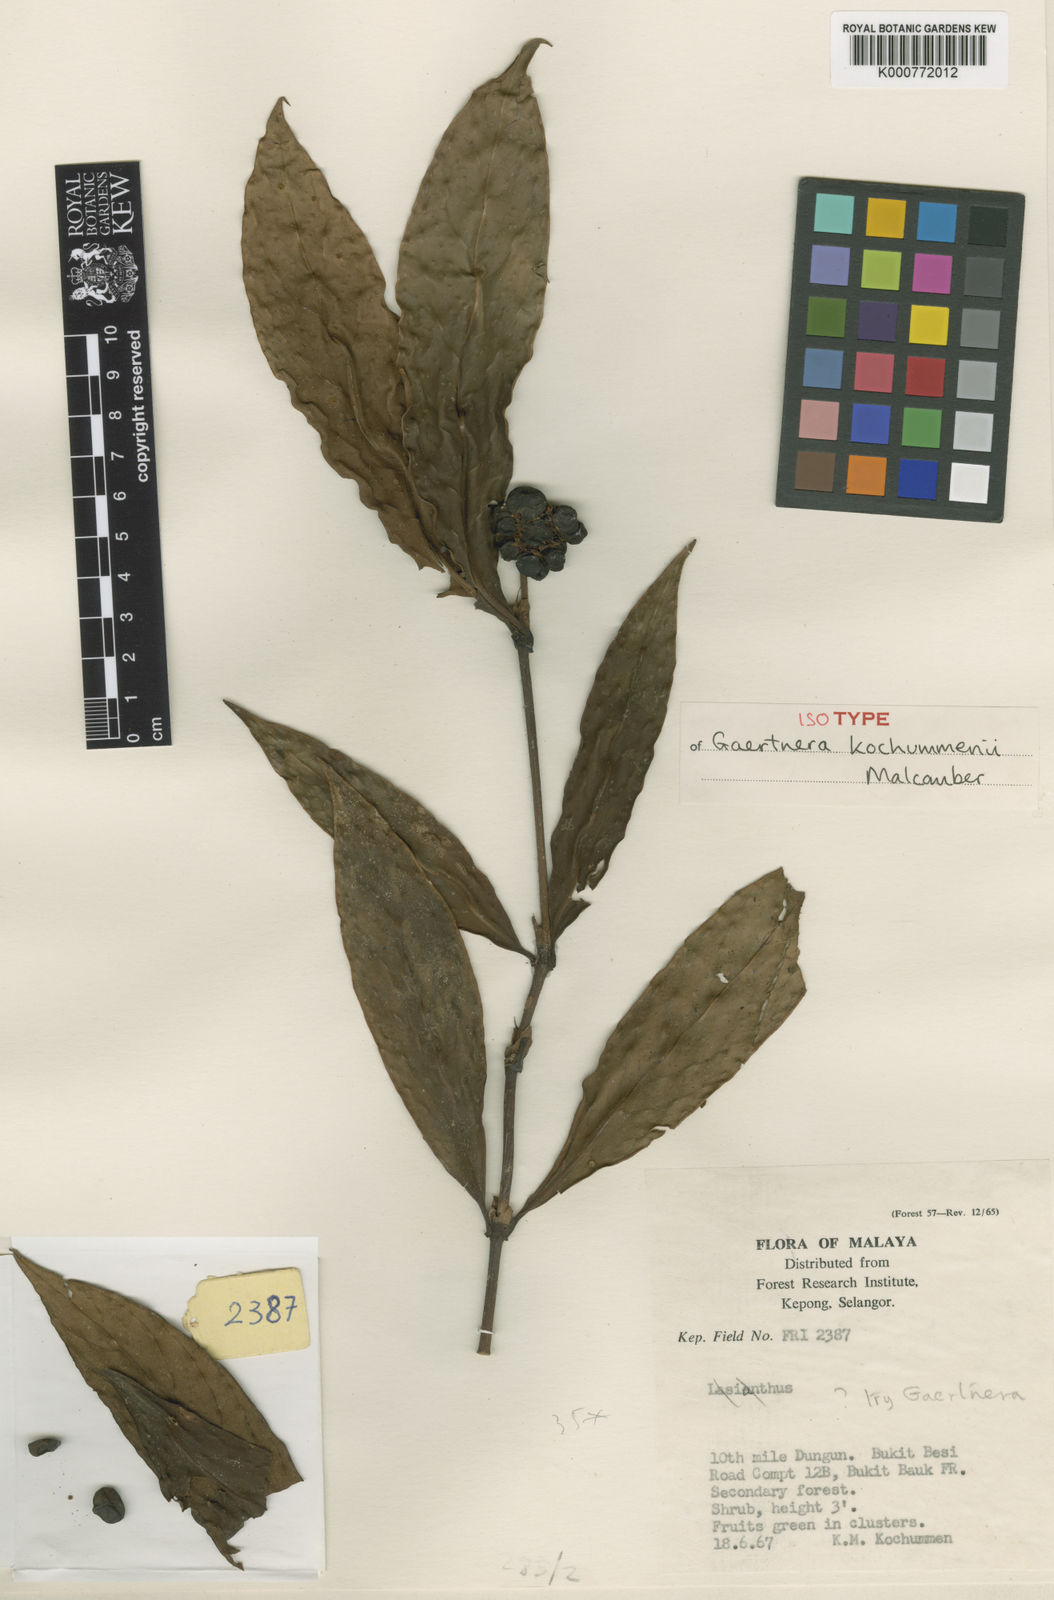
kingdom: Plantae
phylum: Tracheophyta
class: Magnoliopsida
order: Gentianales
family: Rubiaceae
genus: Gaertnera
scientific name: Gaertnera kochummenii
